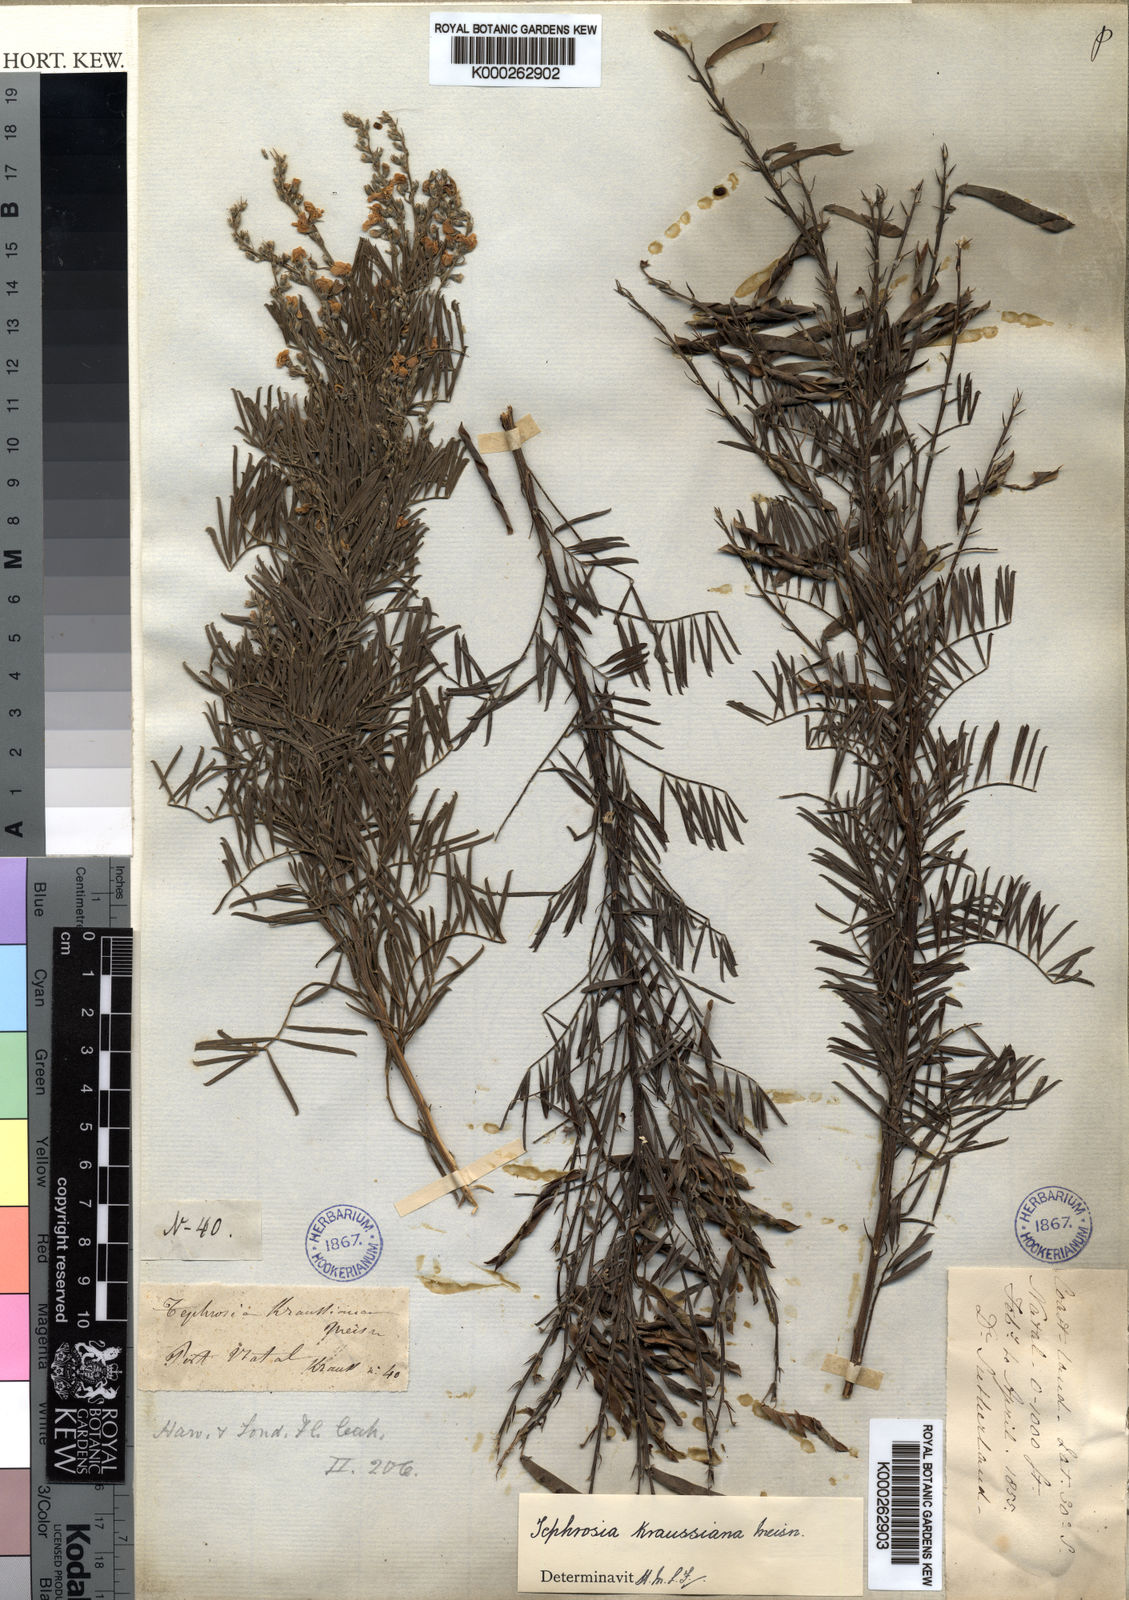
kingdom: Plantae
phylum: Tracheophyta
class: Magnoliopsida
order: Fabales
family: Fabaceae
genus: Tephrosia
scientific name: Tephrosia kraussiana
